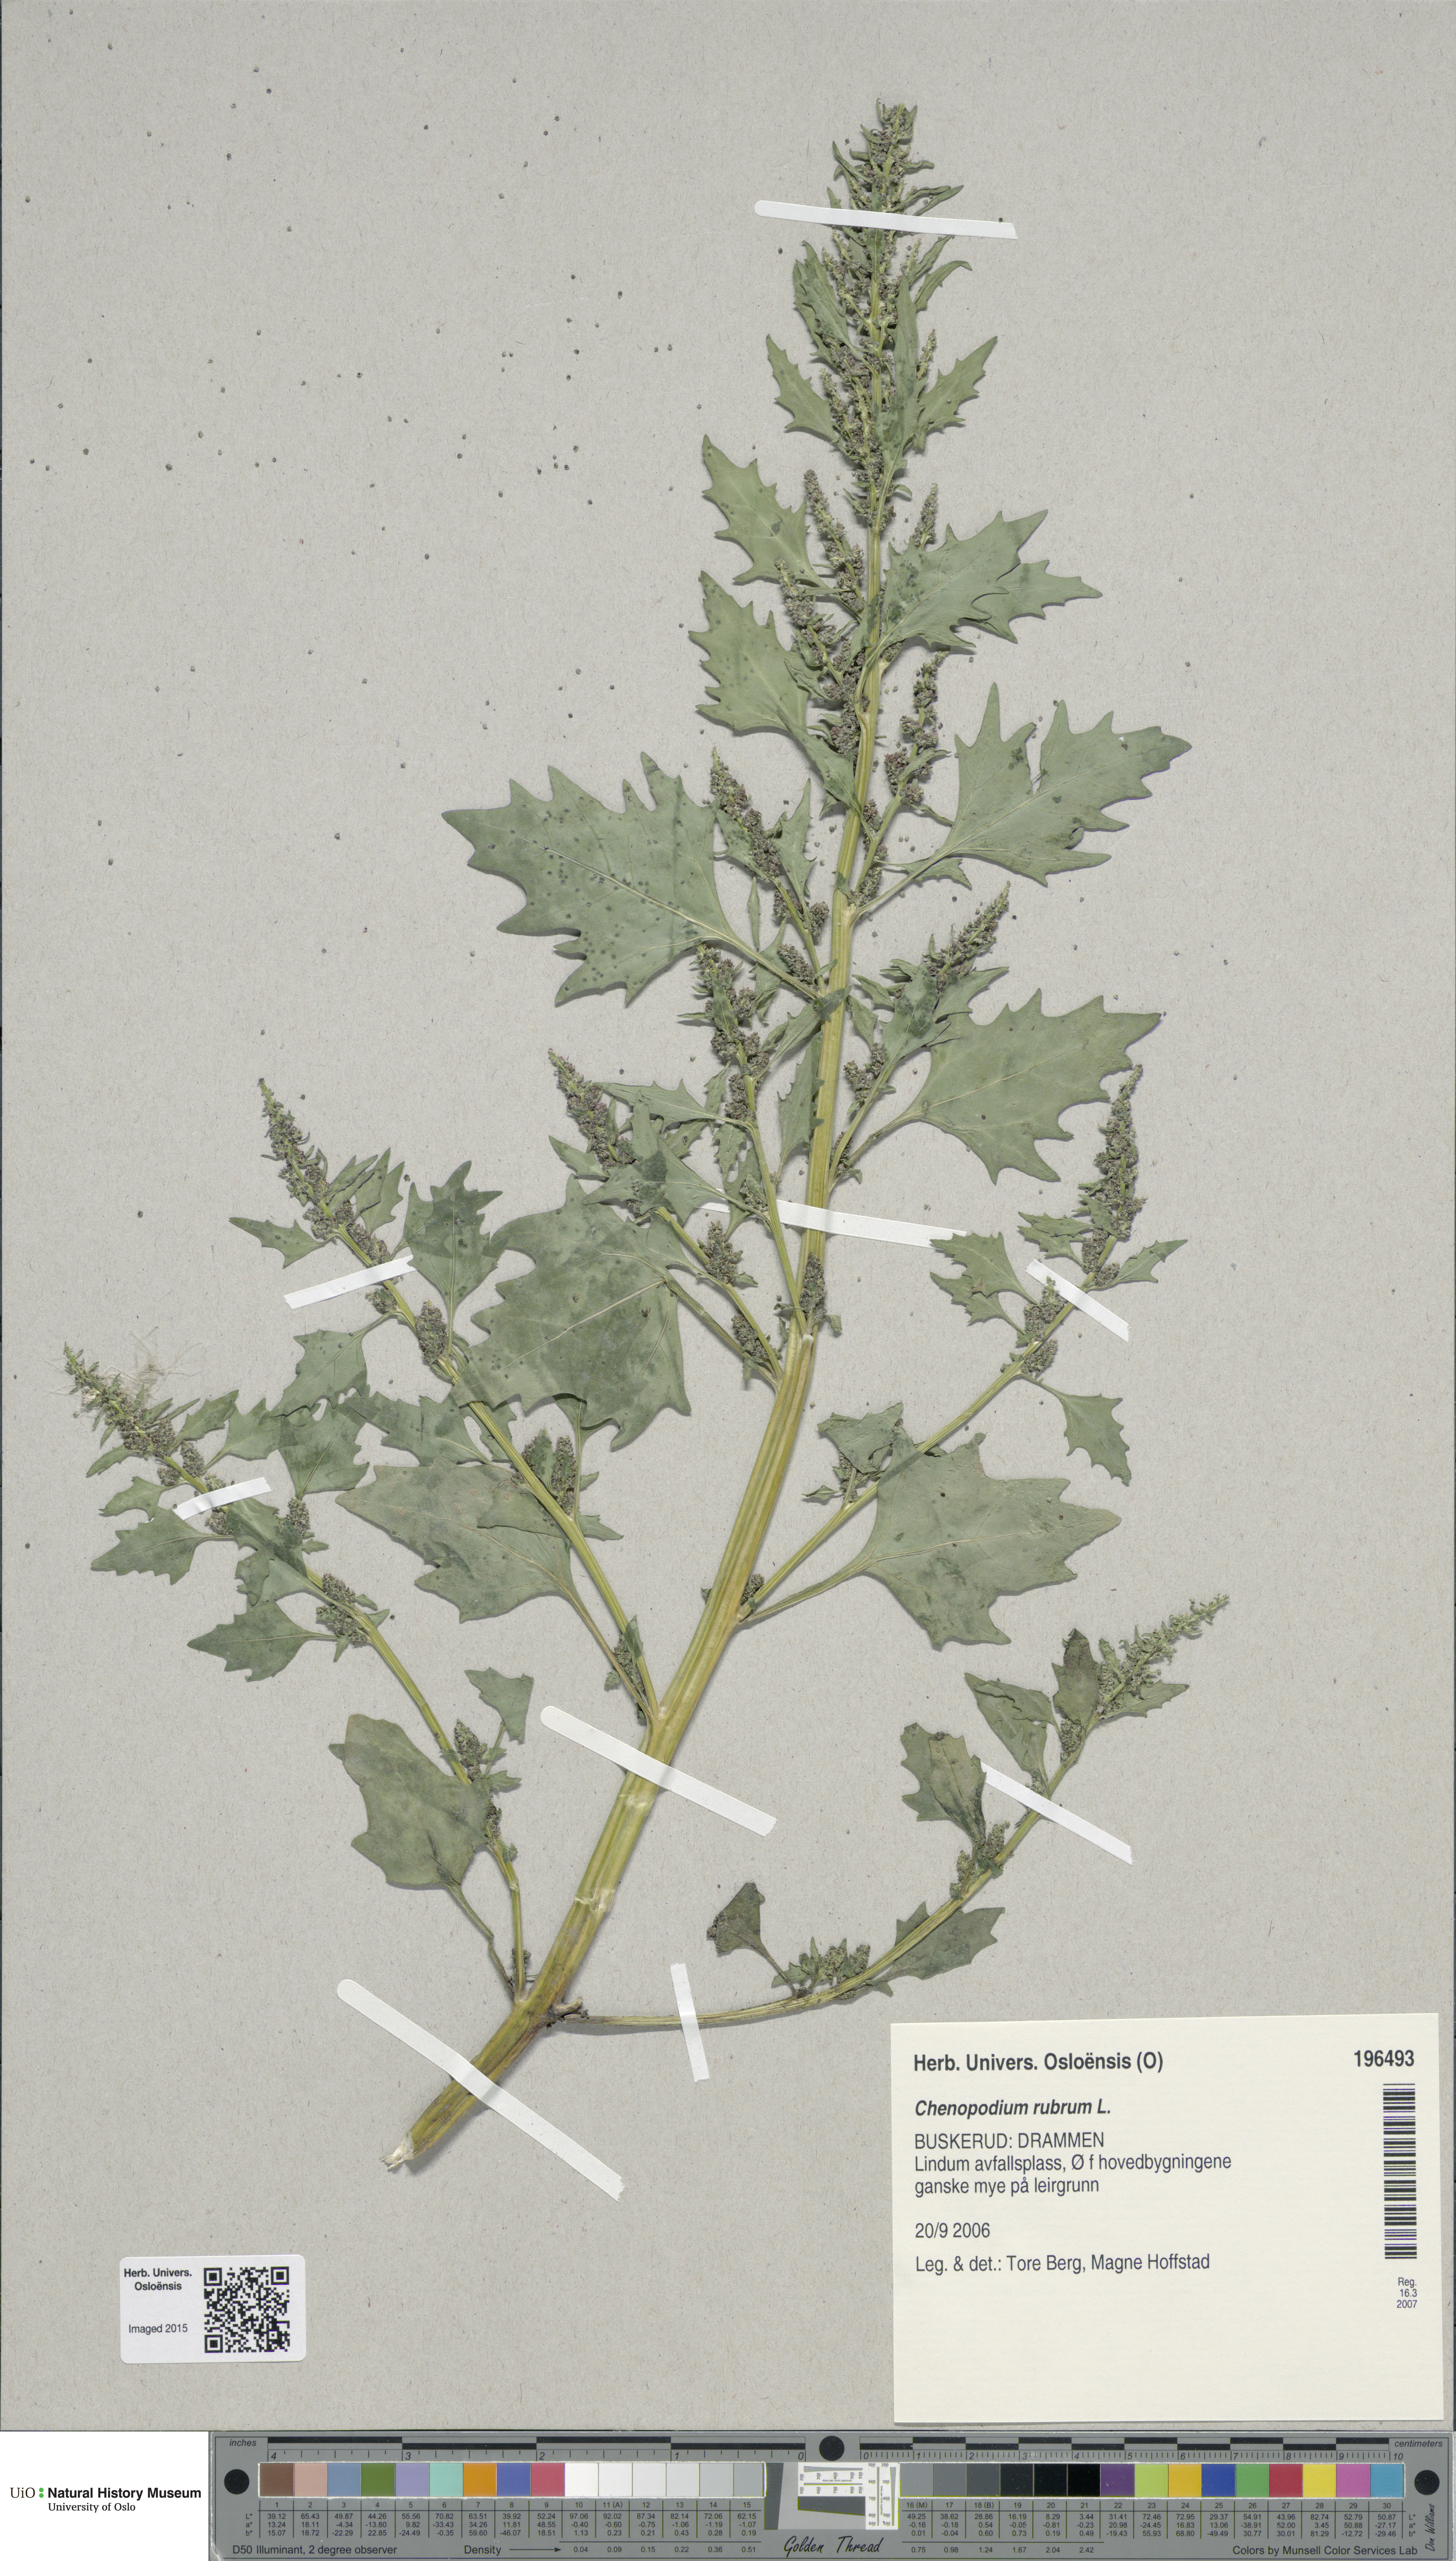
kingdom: Plantae
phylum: Tracheophyta
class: Magnoliopsida
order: Caryophyllales
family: Amaranthaceae
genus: Oxybasis
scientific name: Oxybasis rubra
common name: Red goosefoot
